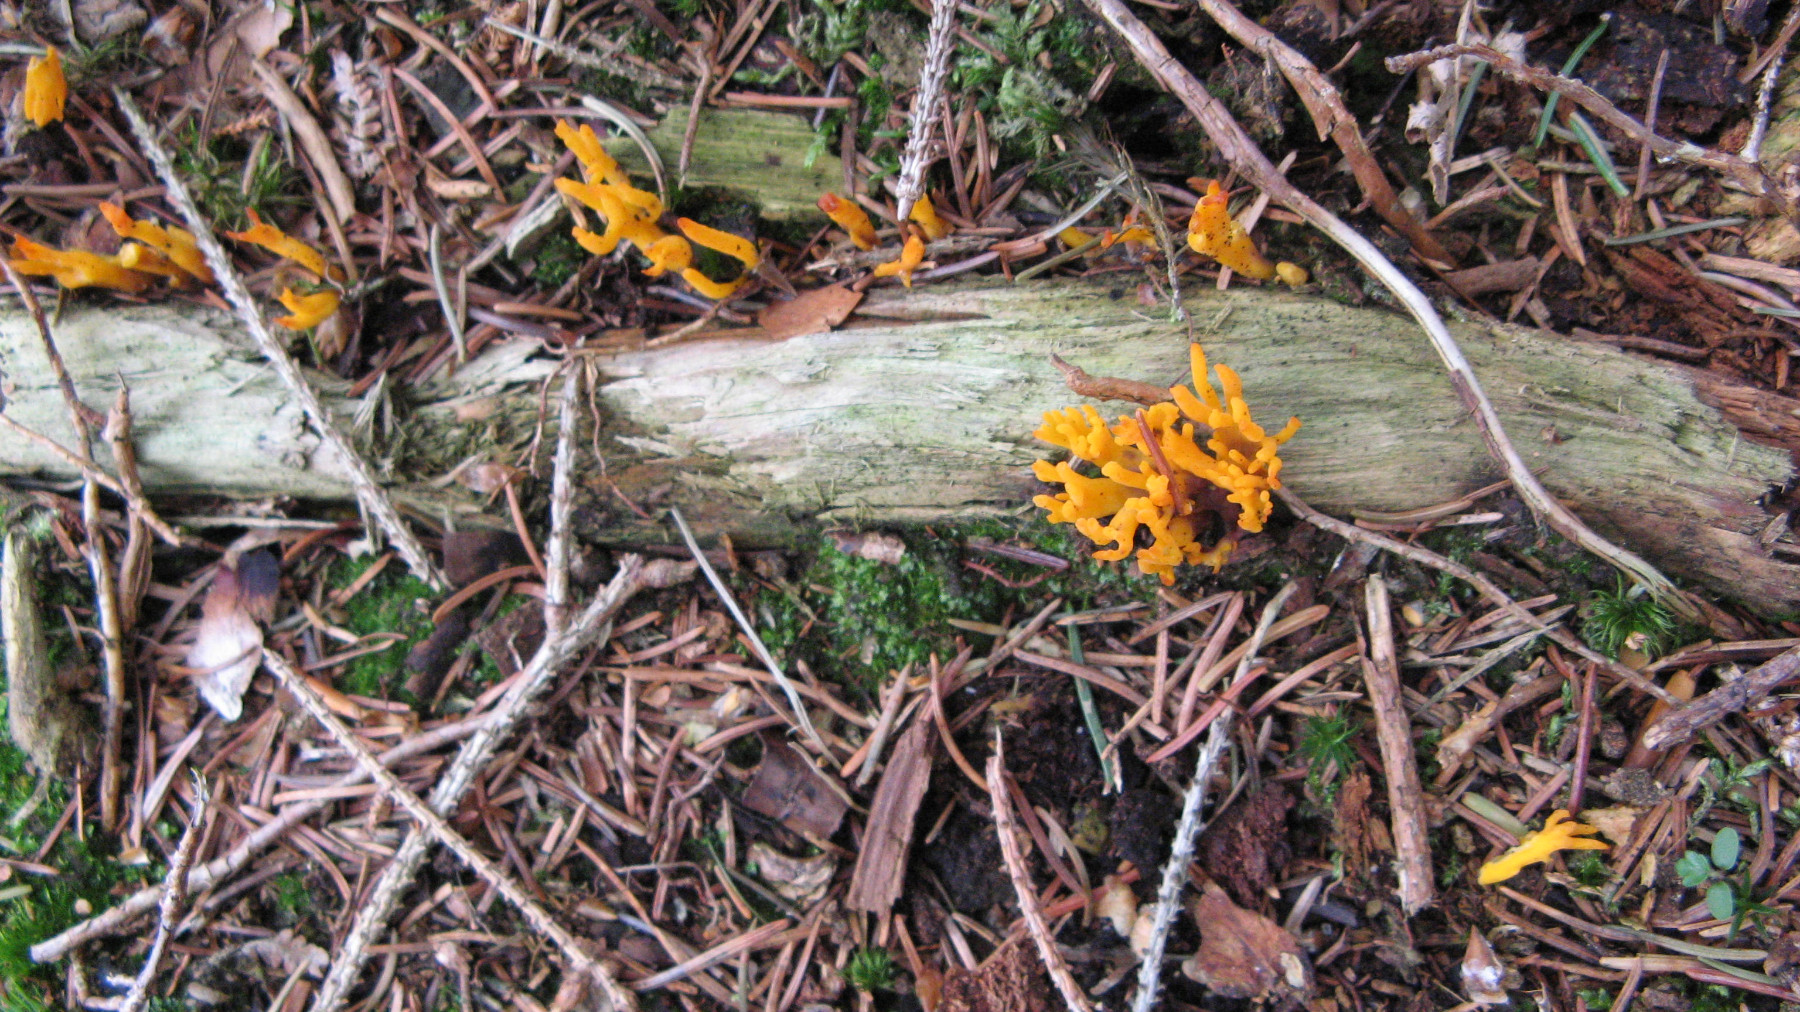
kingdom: Fungi
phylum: Basidiomycota
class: Dacrymycetes
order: Dacrymycetales
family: Dacrymycetaceae
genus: Calocera
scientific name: Calocera viscosa
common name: almindelig guldgaffel
